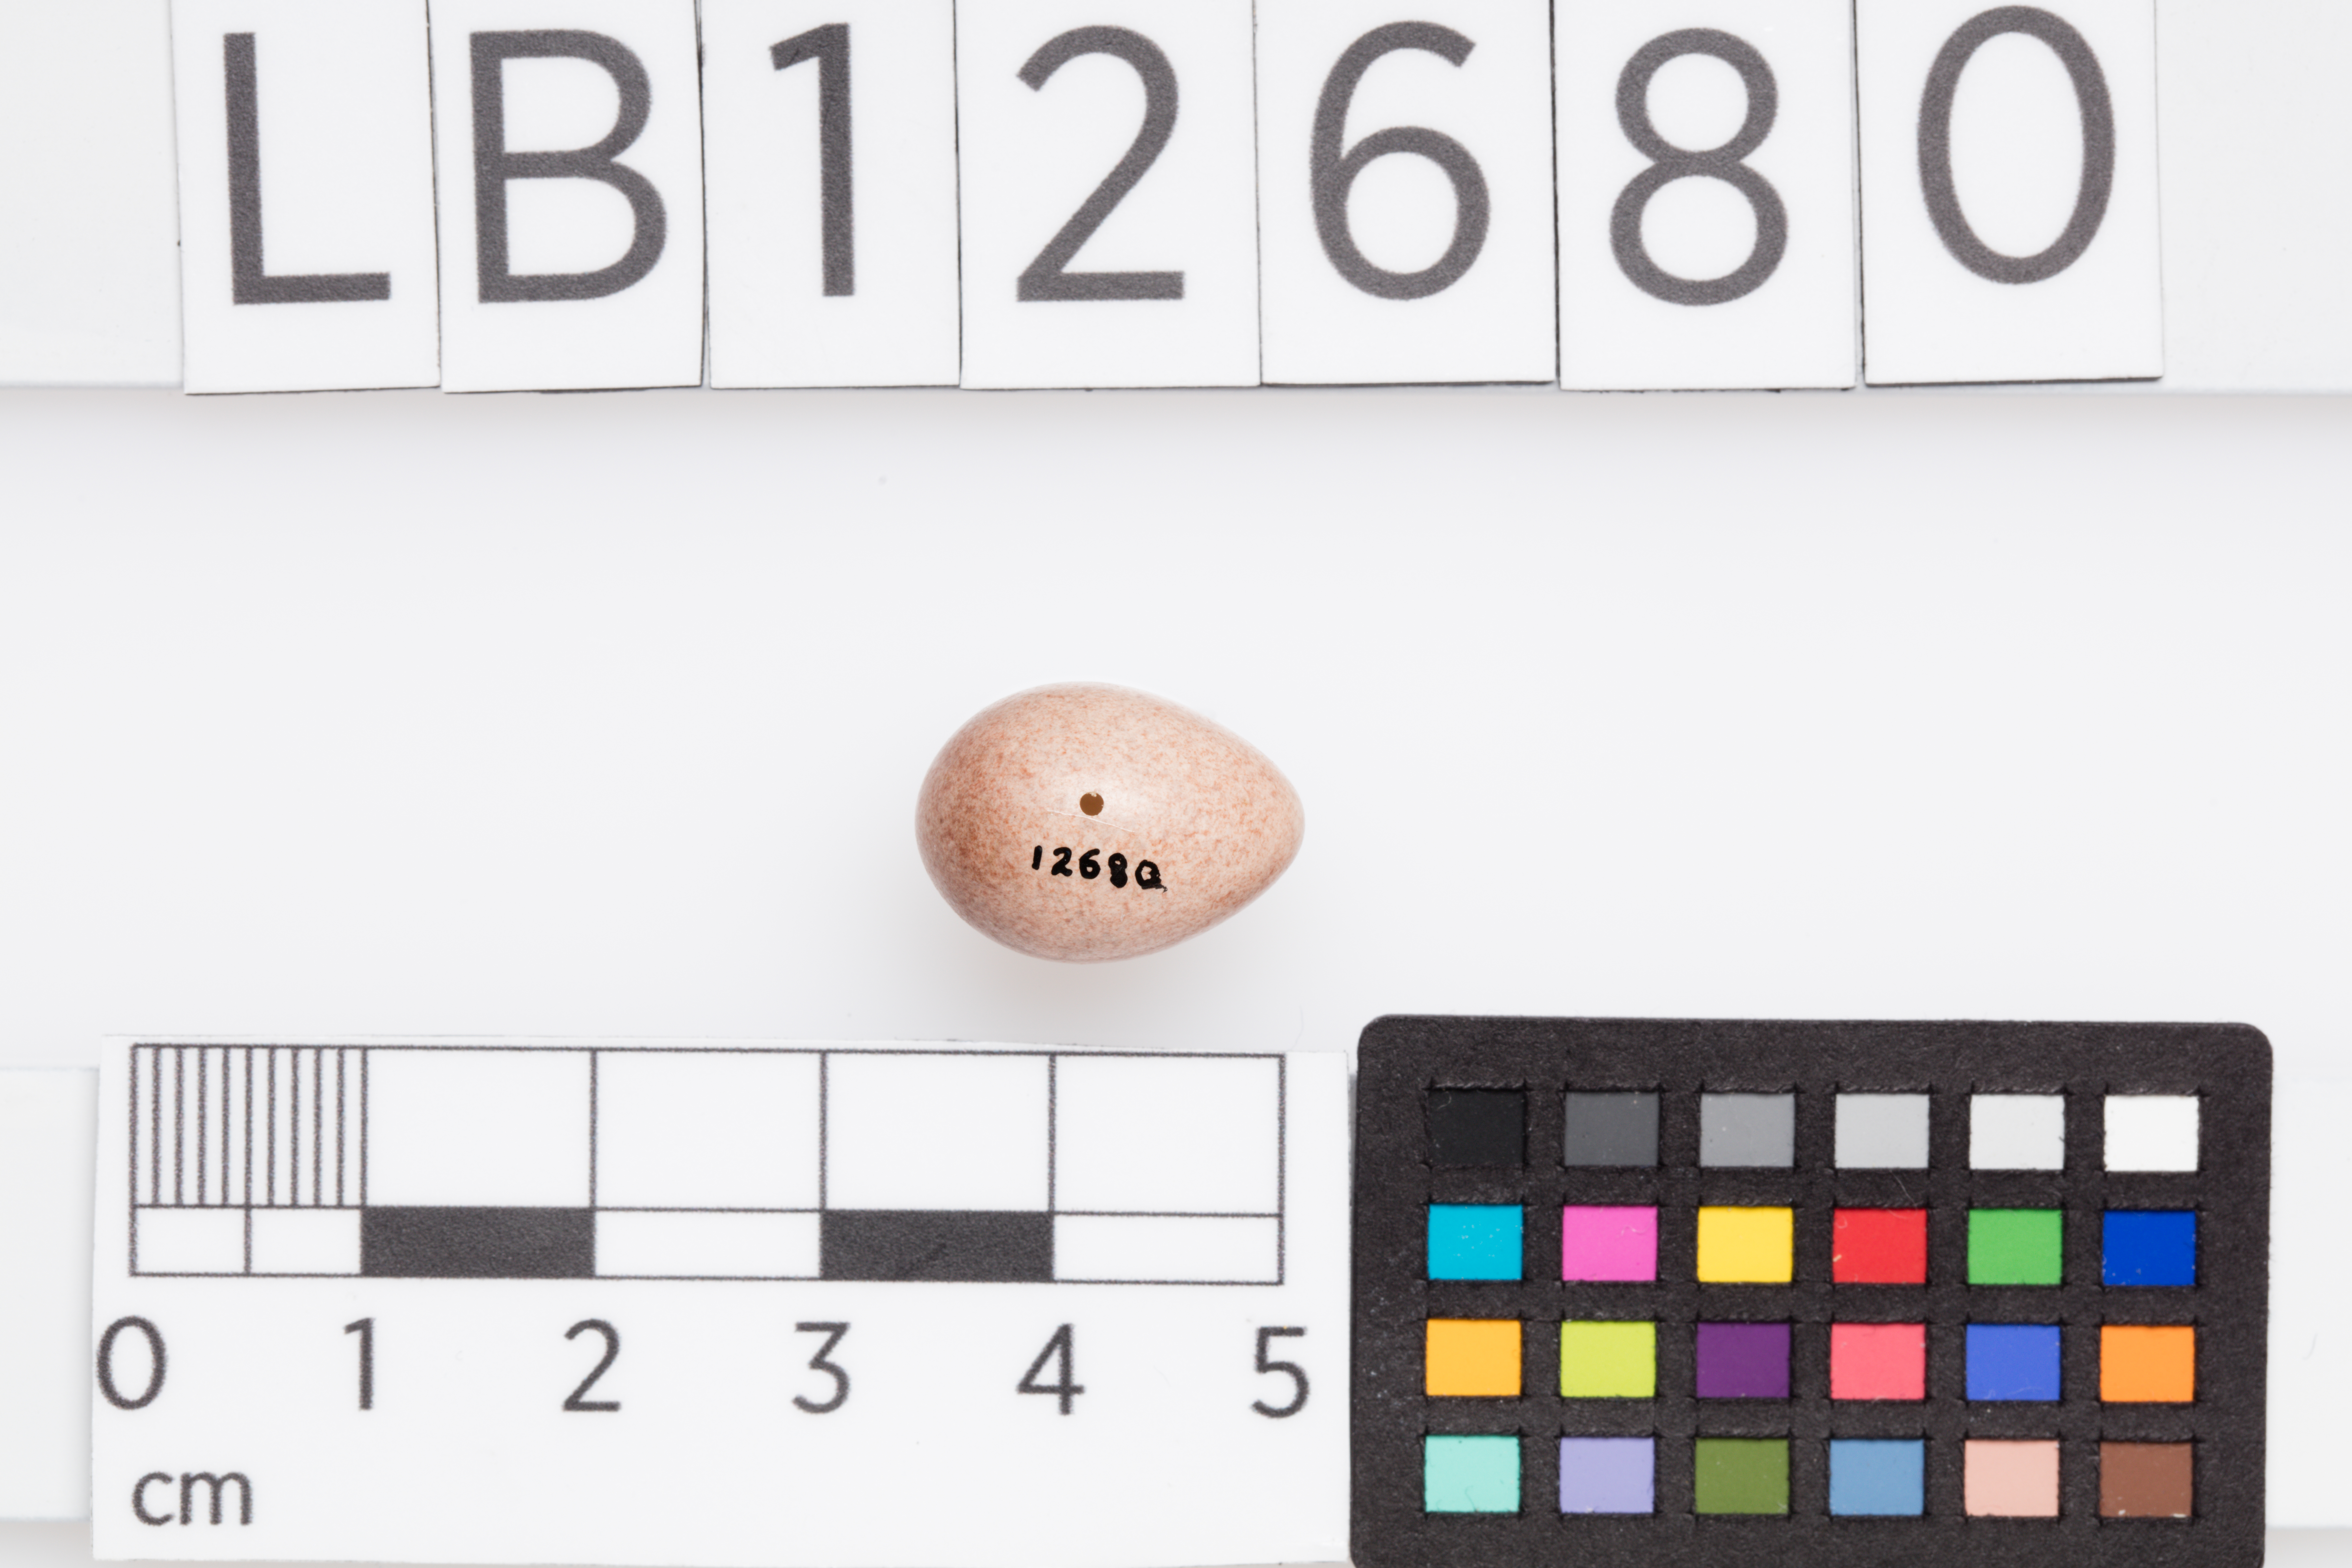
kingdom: Animalia
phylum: Chordata
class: Aves
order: Passeriformes
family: Cisticolidae
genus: Orthotomus
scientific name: Orthotomus
